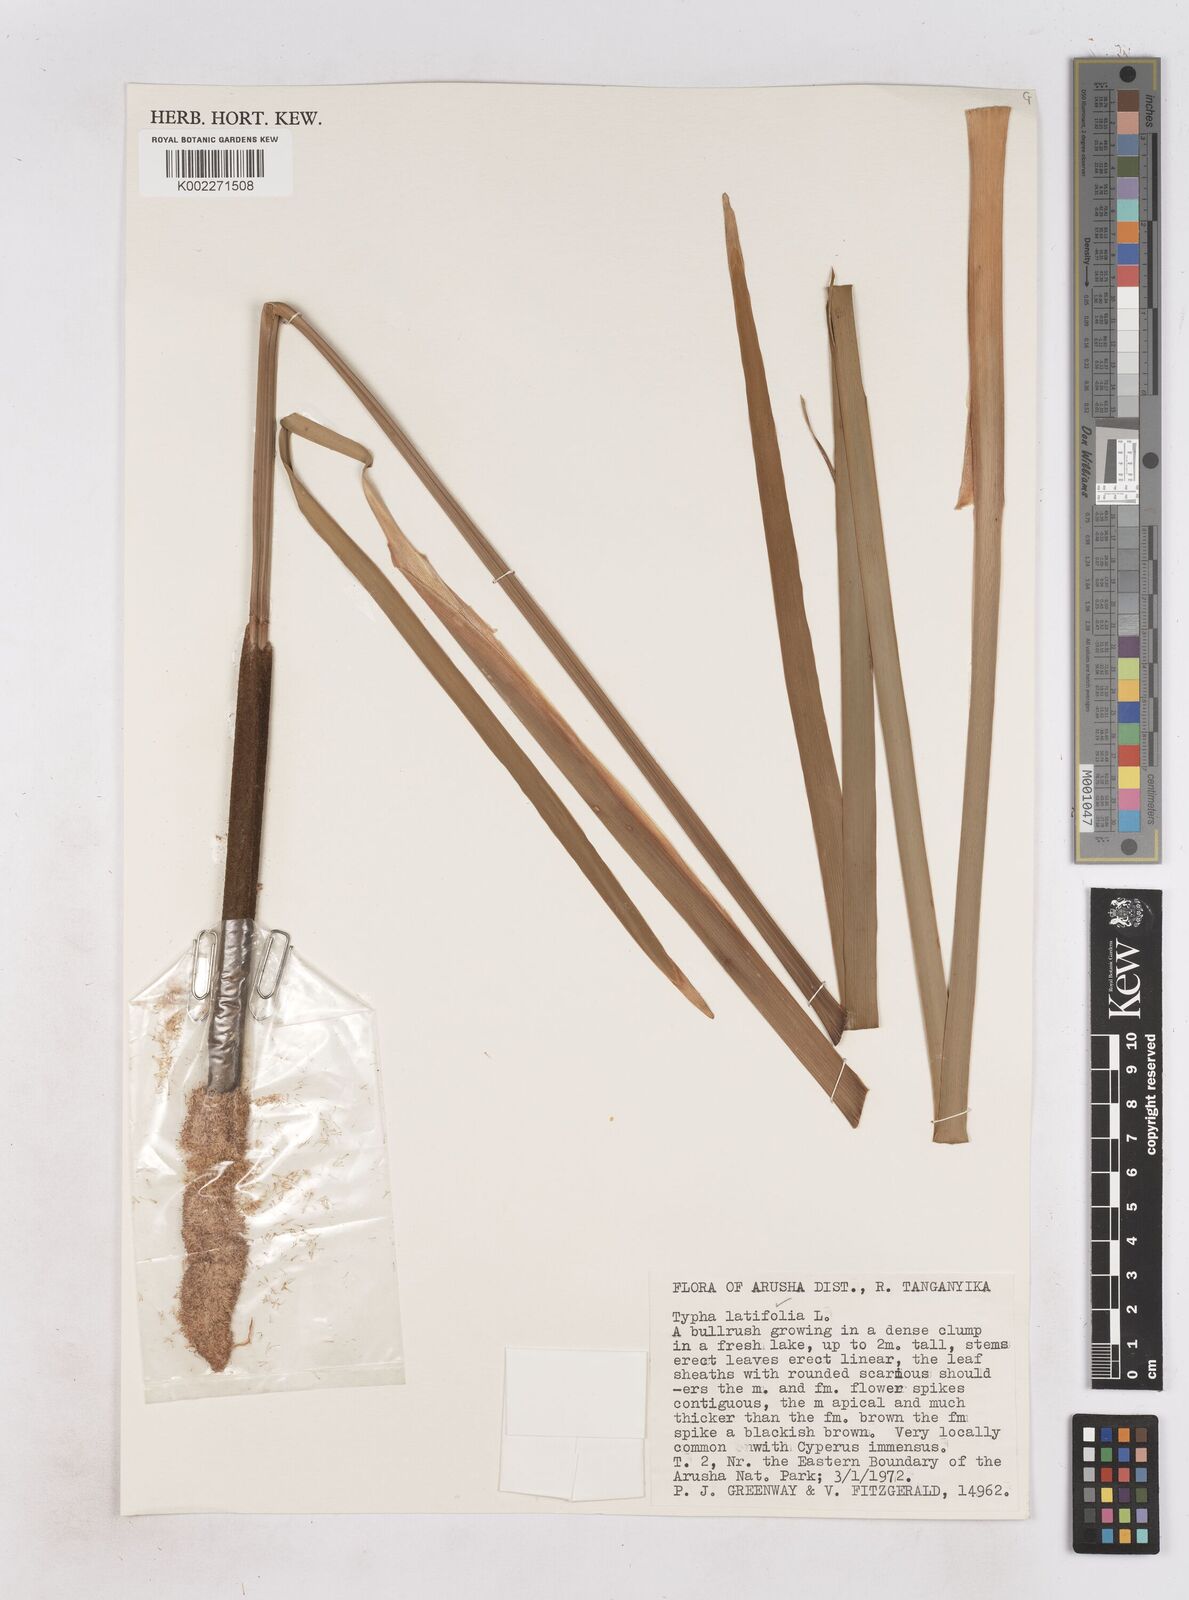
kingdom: Plantae
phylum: Tracheophyta
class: Liliopsida
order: Poales
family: Typhaceae
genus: Typha
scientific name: Typha latifolia
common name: Broadleaf cattail
